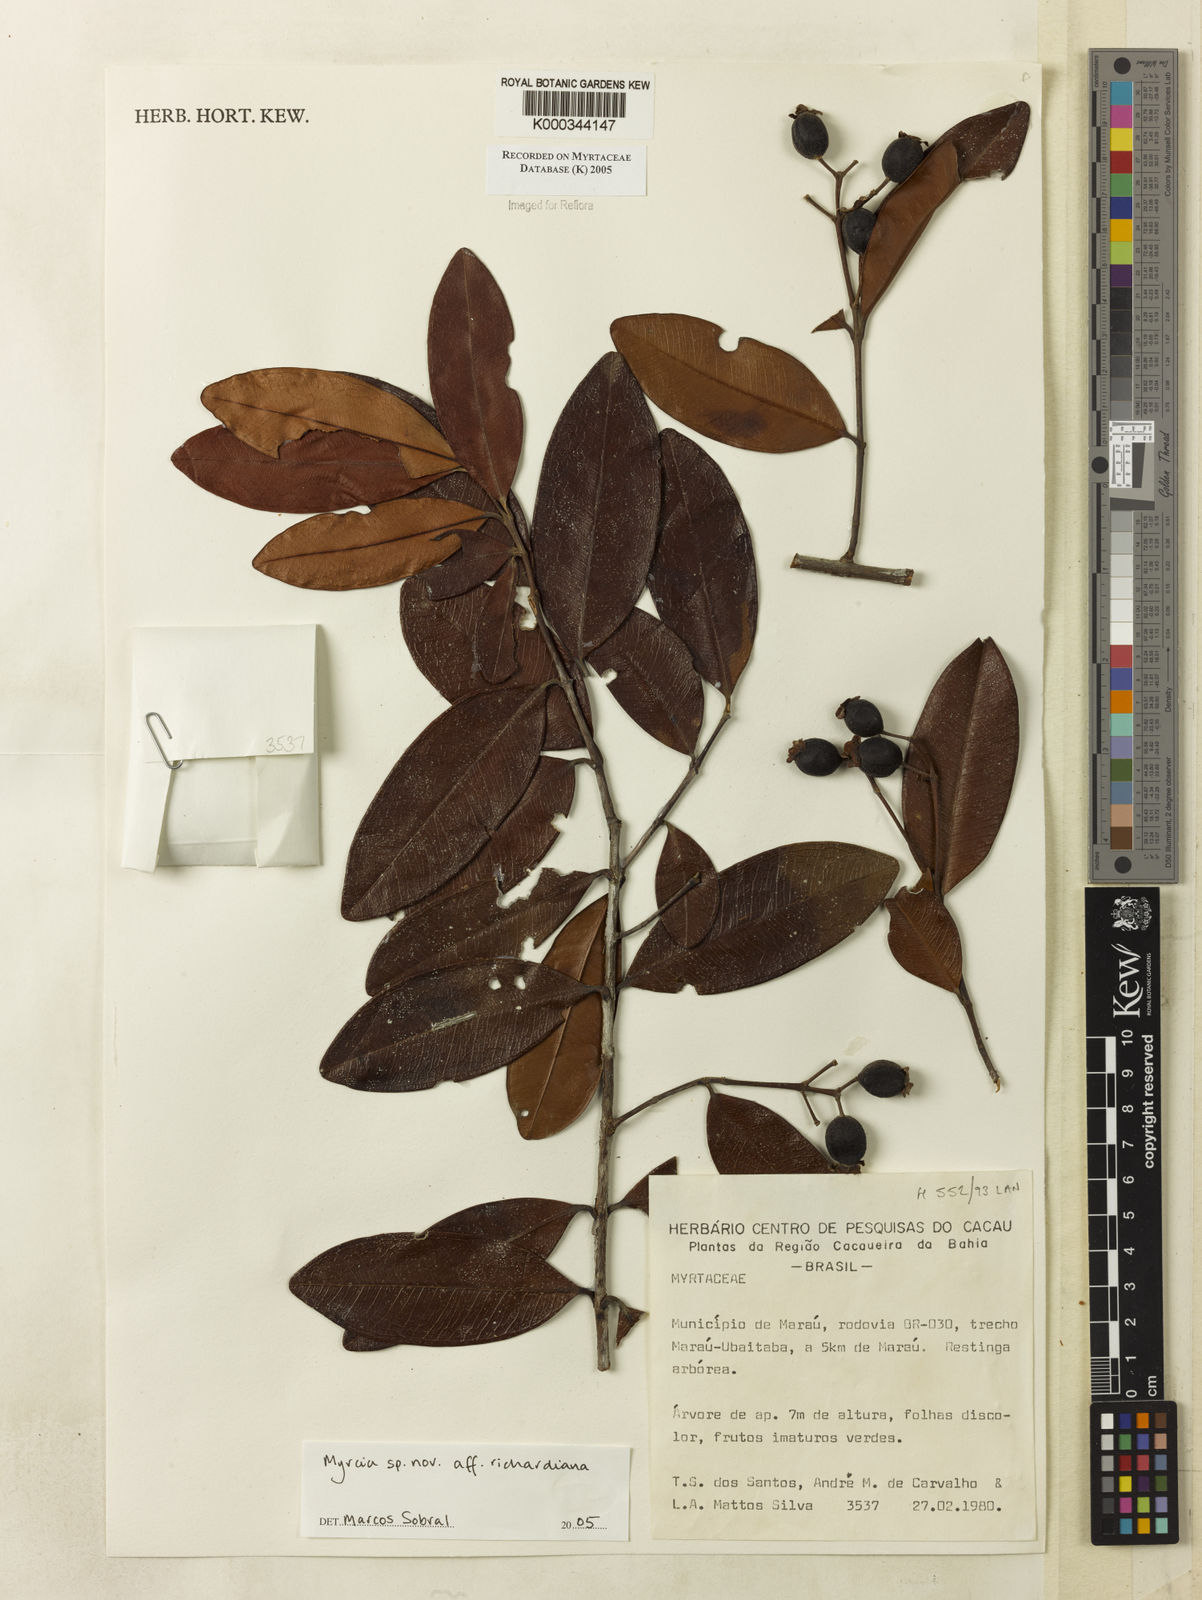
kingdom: Plantae
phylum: Tracheophyta
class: Magnoliopsida
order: Myrtales
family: Myrtaceae
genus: Myrcia
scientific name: Myrcia richardiana
